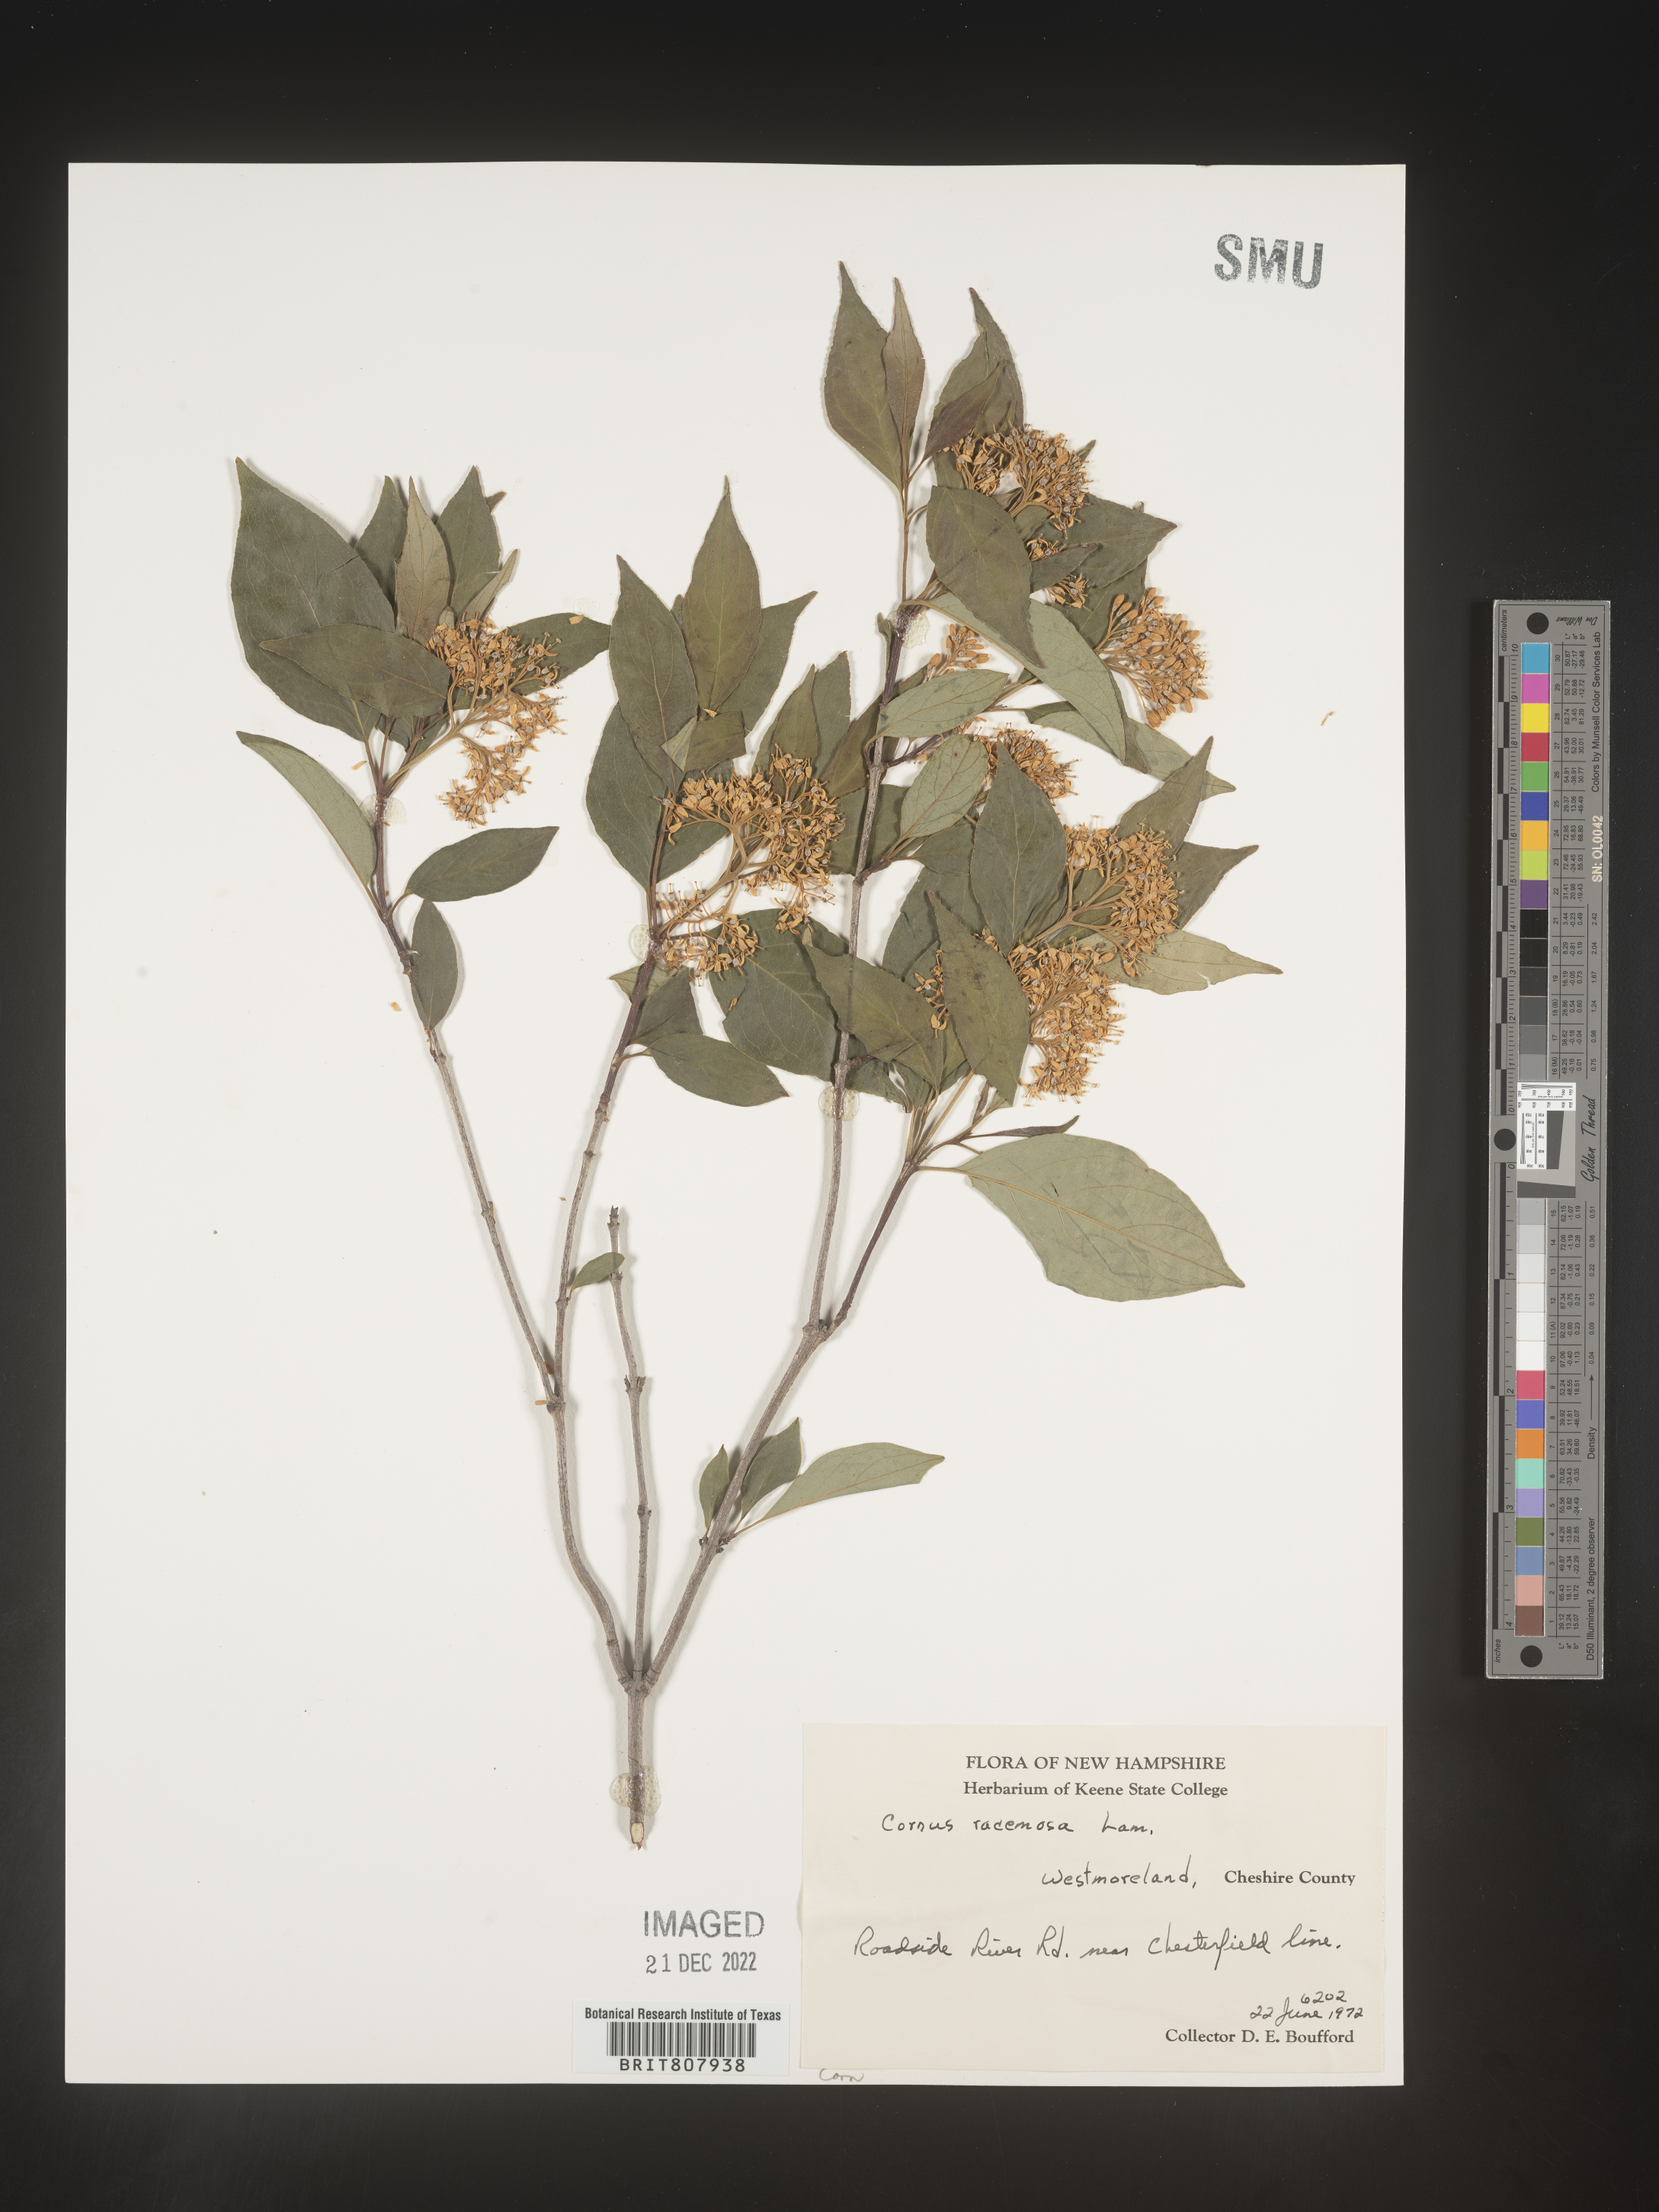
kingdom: Plantae
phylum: Tracheophyta
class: Magnoliopsida
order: Cornales
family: Cornaceae
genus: Cornus
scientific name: Cornus racemosa
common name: Panicled dogwood
